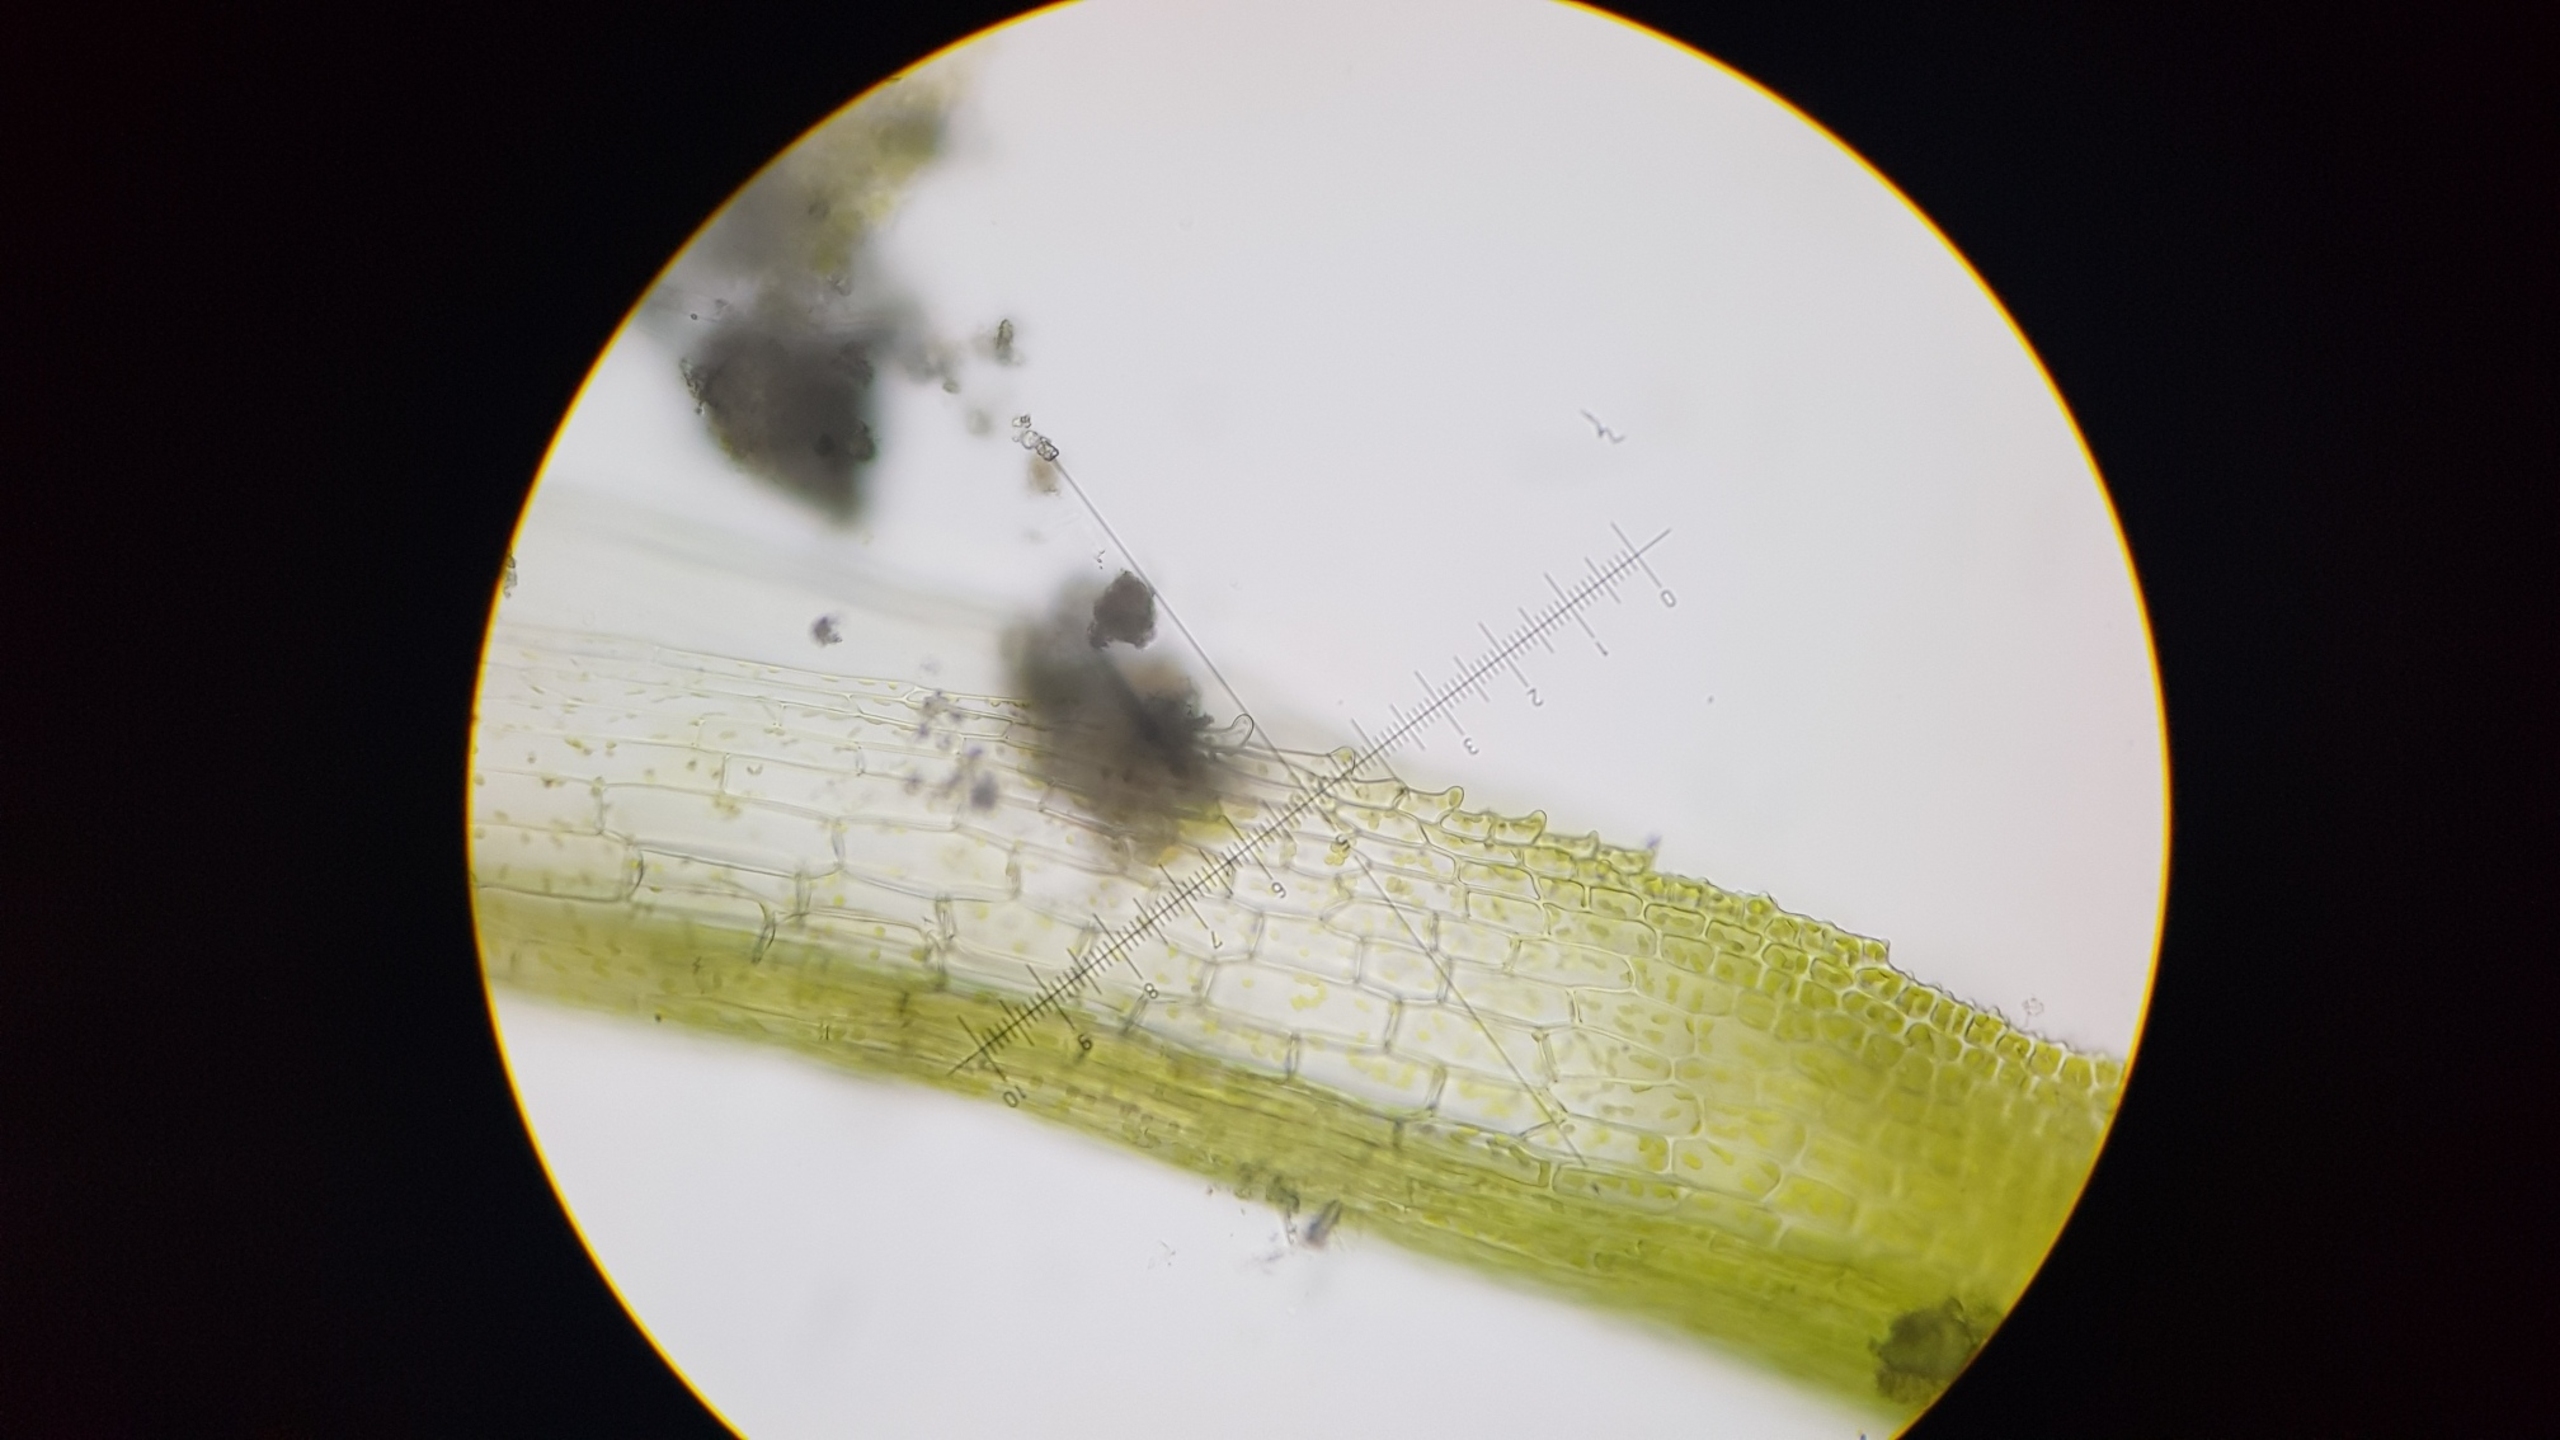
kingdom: Plantae
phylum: Bryophyta
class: Bryopsida
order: Pottiales
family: Pottiaceae
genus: Eucladium
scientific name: Eucladium verticillatum
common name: Kransbladet gaffelmos
